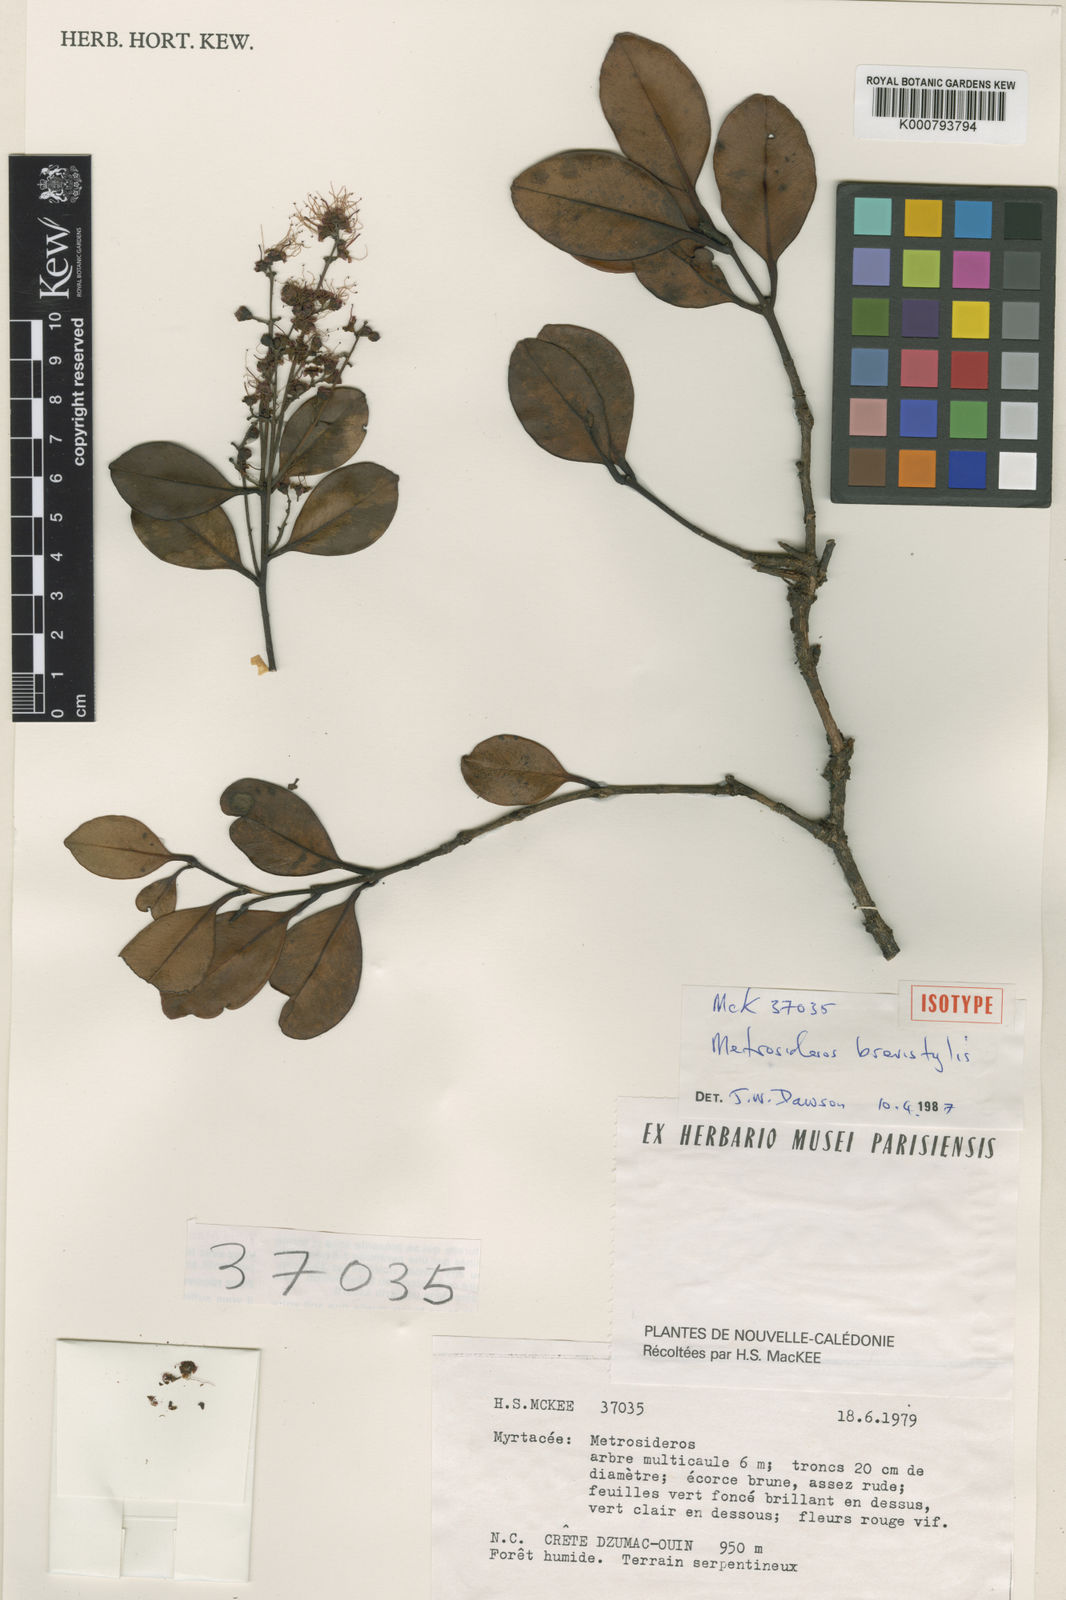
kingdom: Plantae
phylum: Tracheophyta
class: Magnoliopsida
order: Myrtales
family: Myrtaceae
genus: Metrosideros
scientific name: Metrosideros brevistylis
